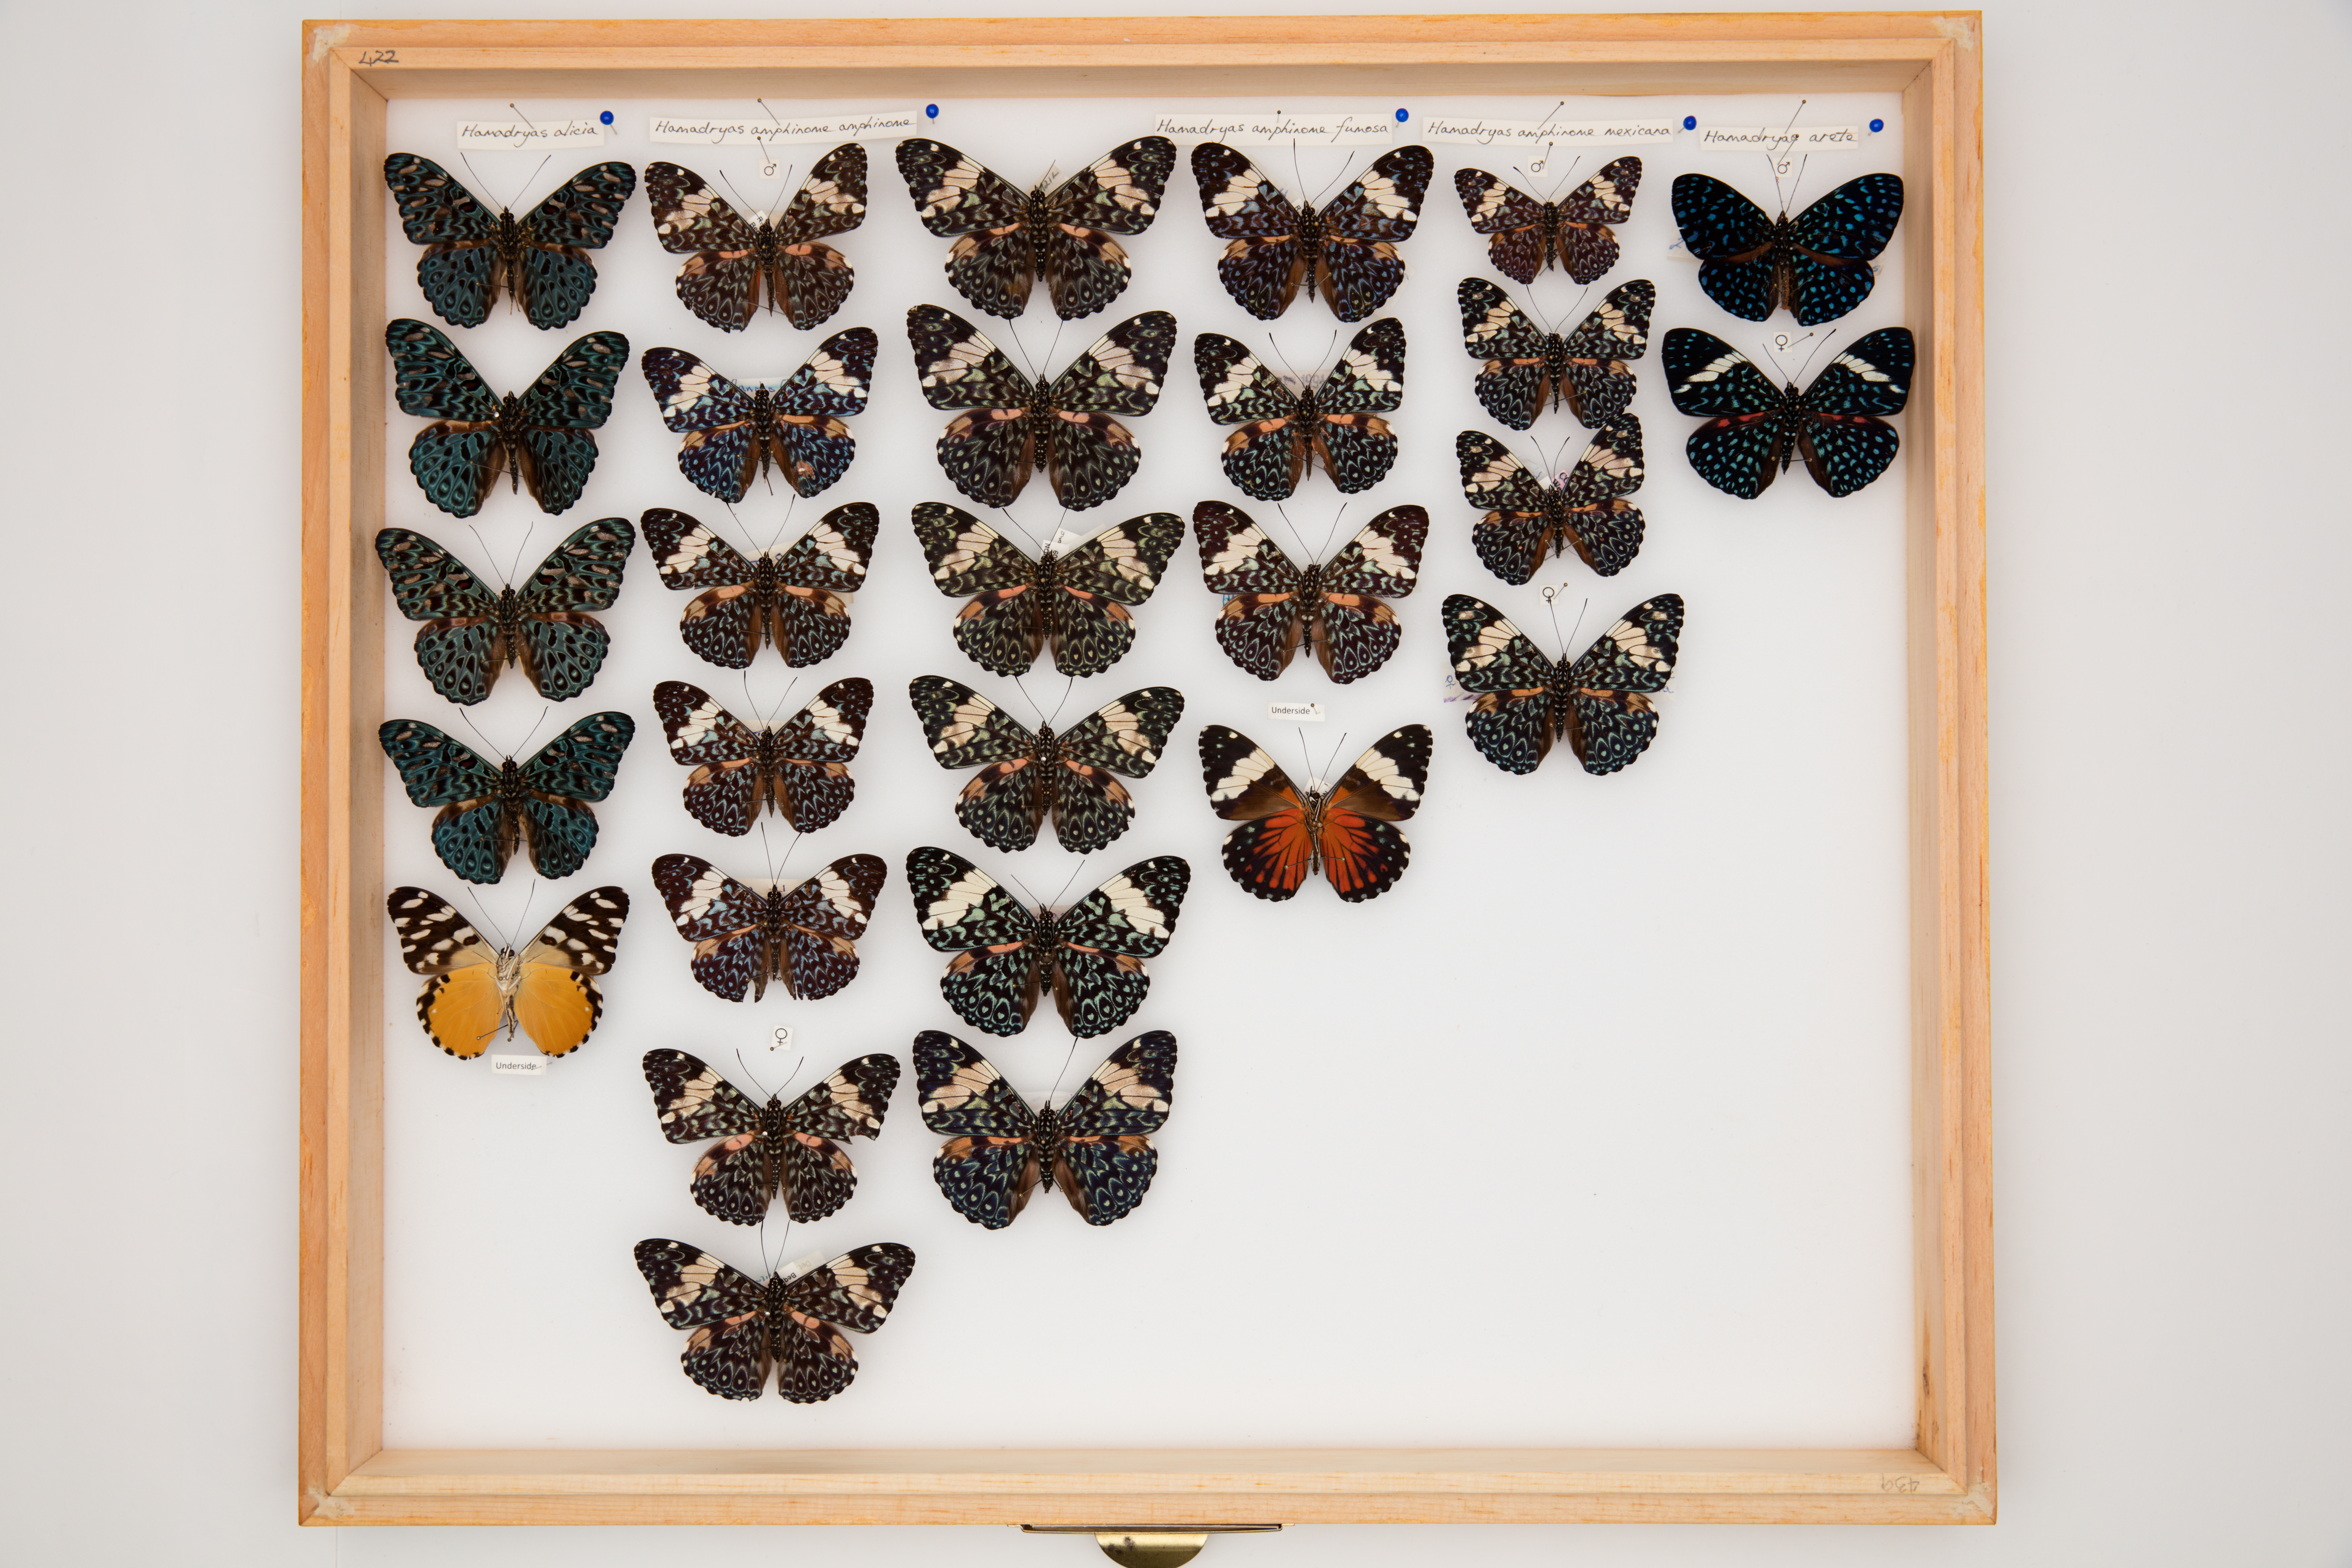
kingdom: Animalia
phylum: Arthropoda
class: Insecta
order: Lepidoptera
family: Nymphalidae
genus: Hamadryas
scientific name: Hamadryas alicia
